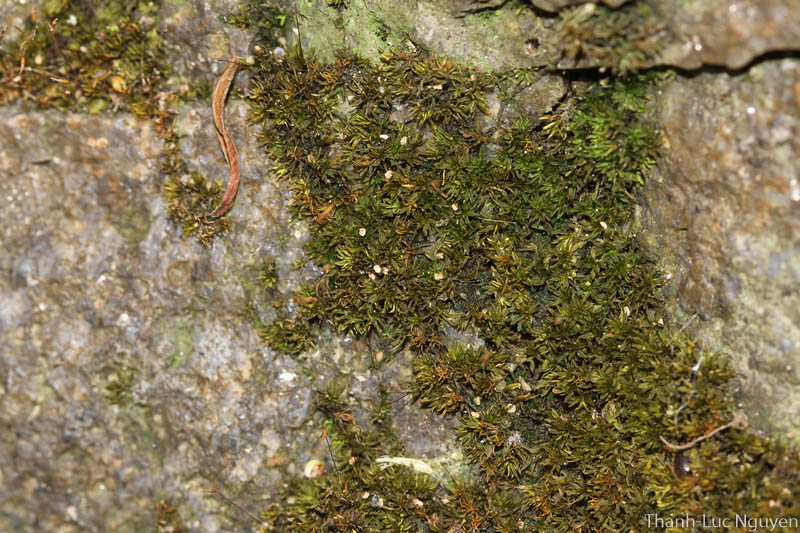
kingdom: Plantae
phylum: Bryophyta
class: Bryopsida
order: Pottiales
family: Pottiaceae
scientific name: Pottiaceae
